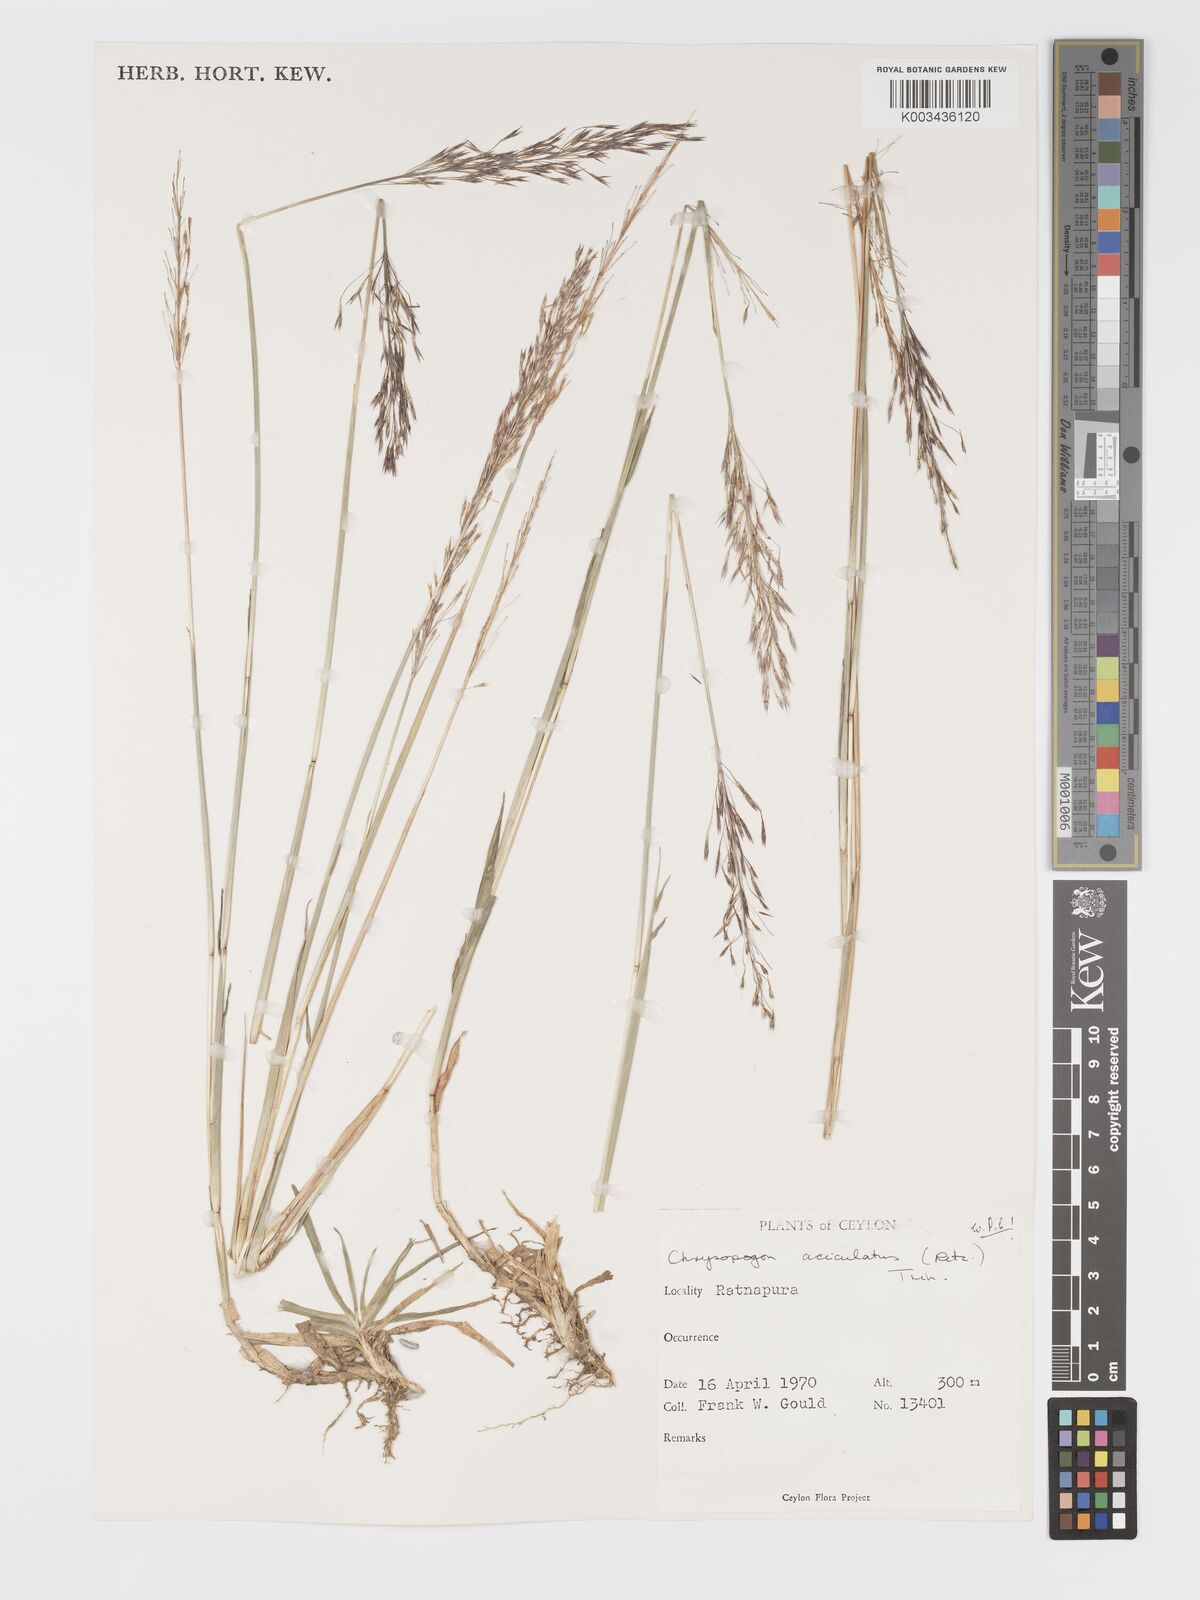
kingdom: Plantae
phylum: Tracheophyta
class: Liliopsida
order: Poales
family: Poaceae
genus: Chrysopogon
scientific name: Chrysopogon aciculatus
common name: Pilipiliula
